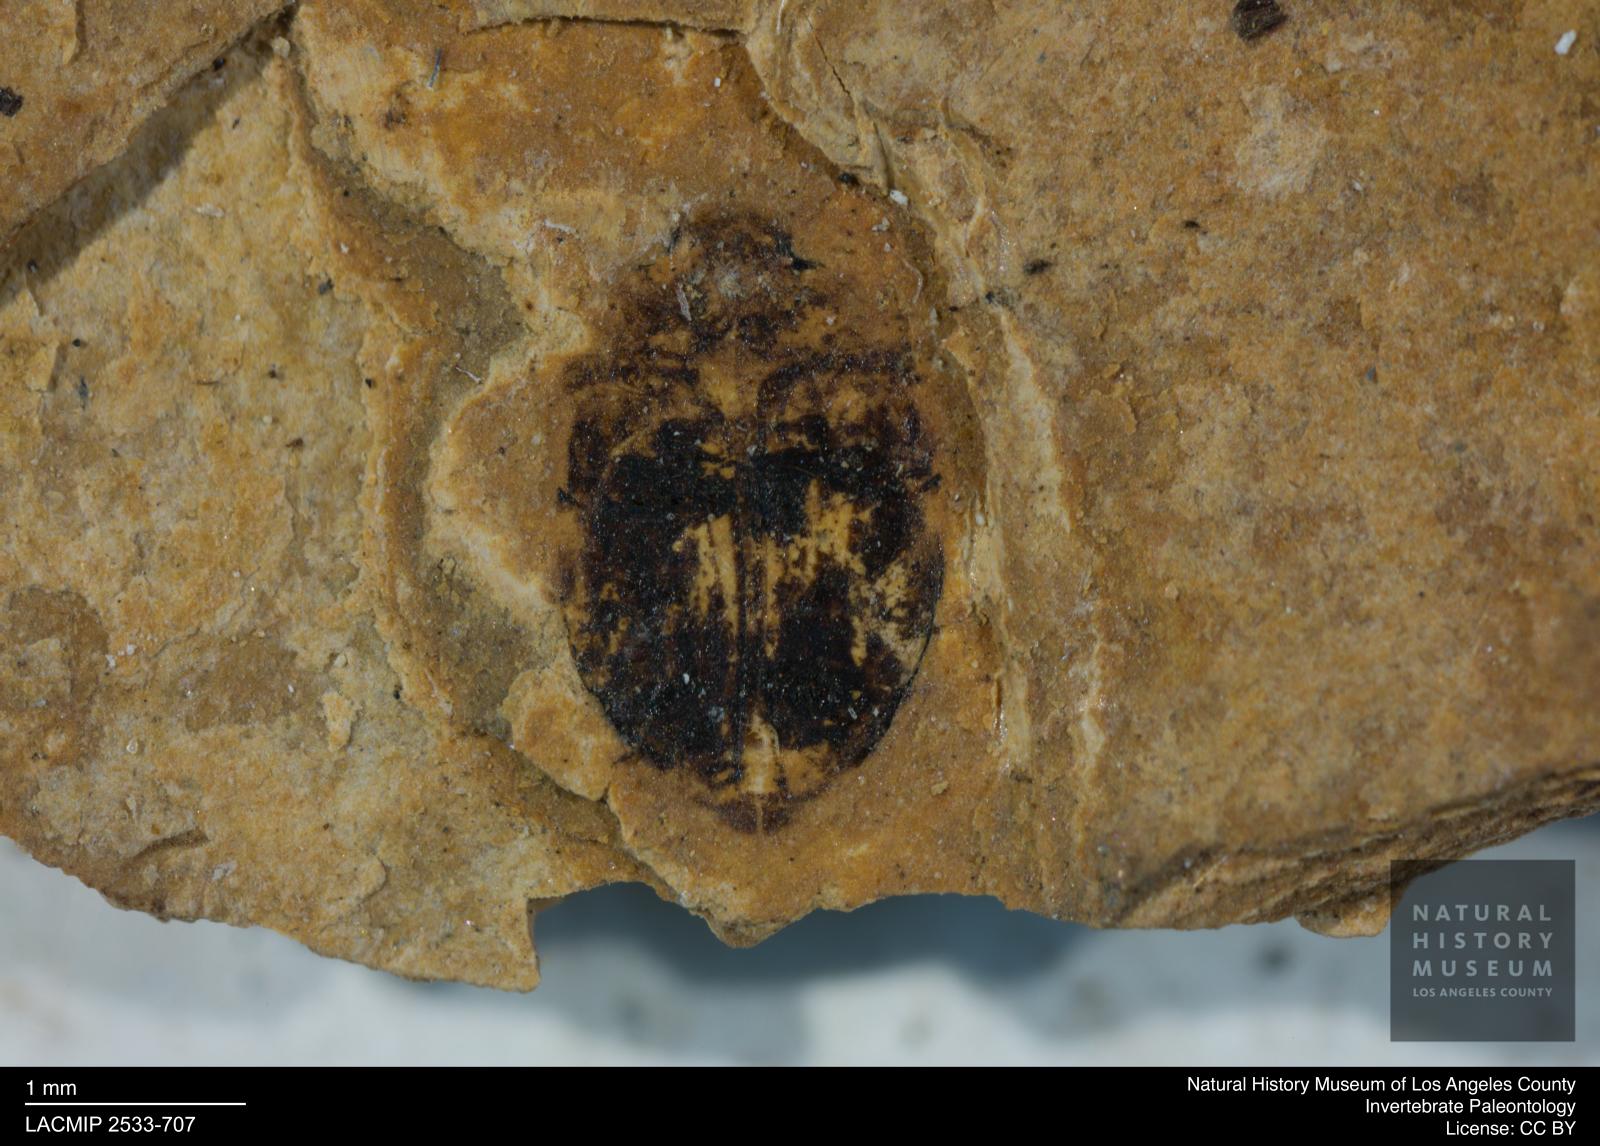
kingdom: Animalia
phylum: Arthropoda
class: Insecta
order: Coleoptera
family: Dytiscidae
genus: Oreodytes
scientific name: Oreodytes cryptolineatus
